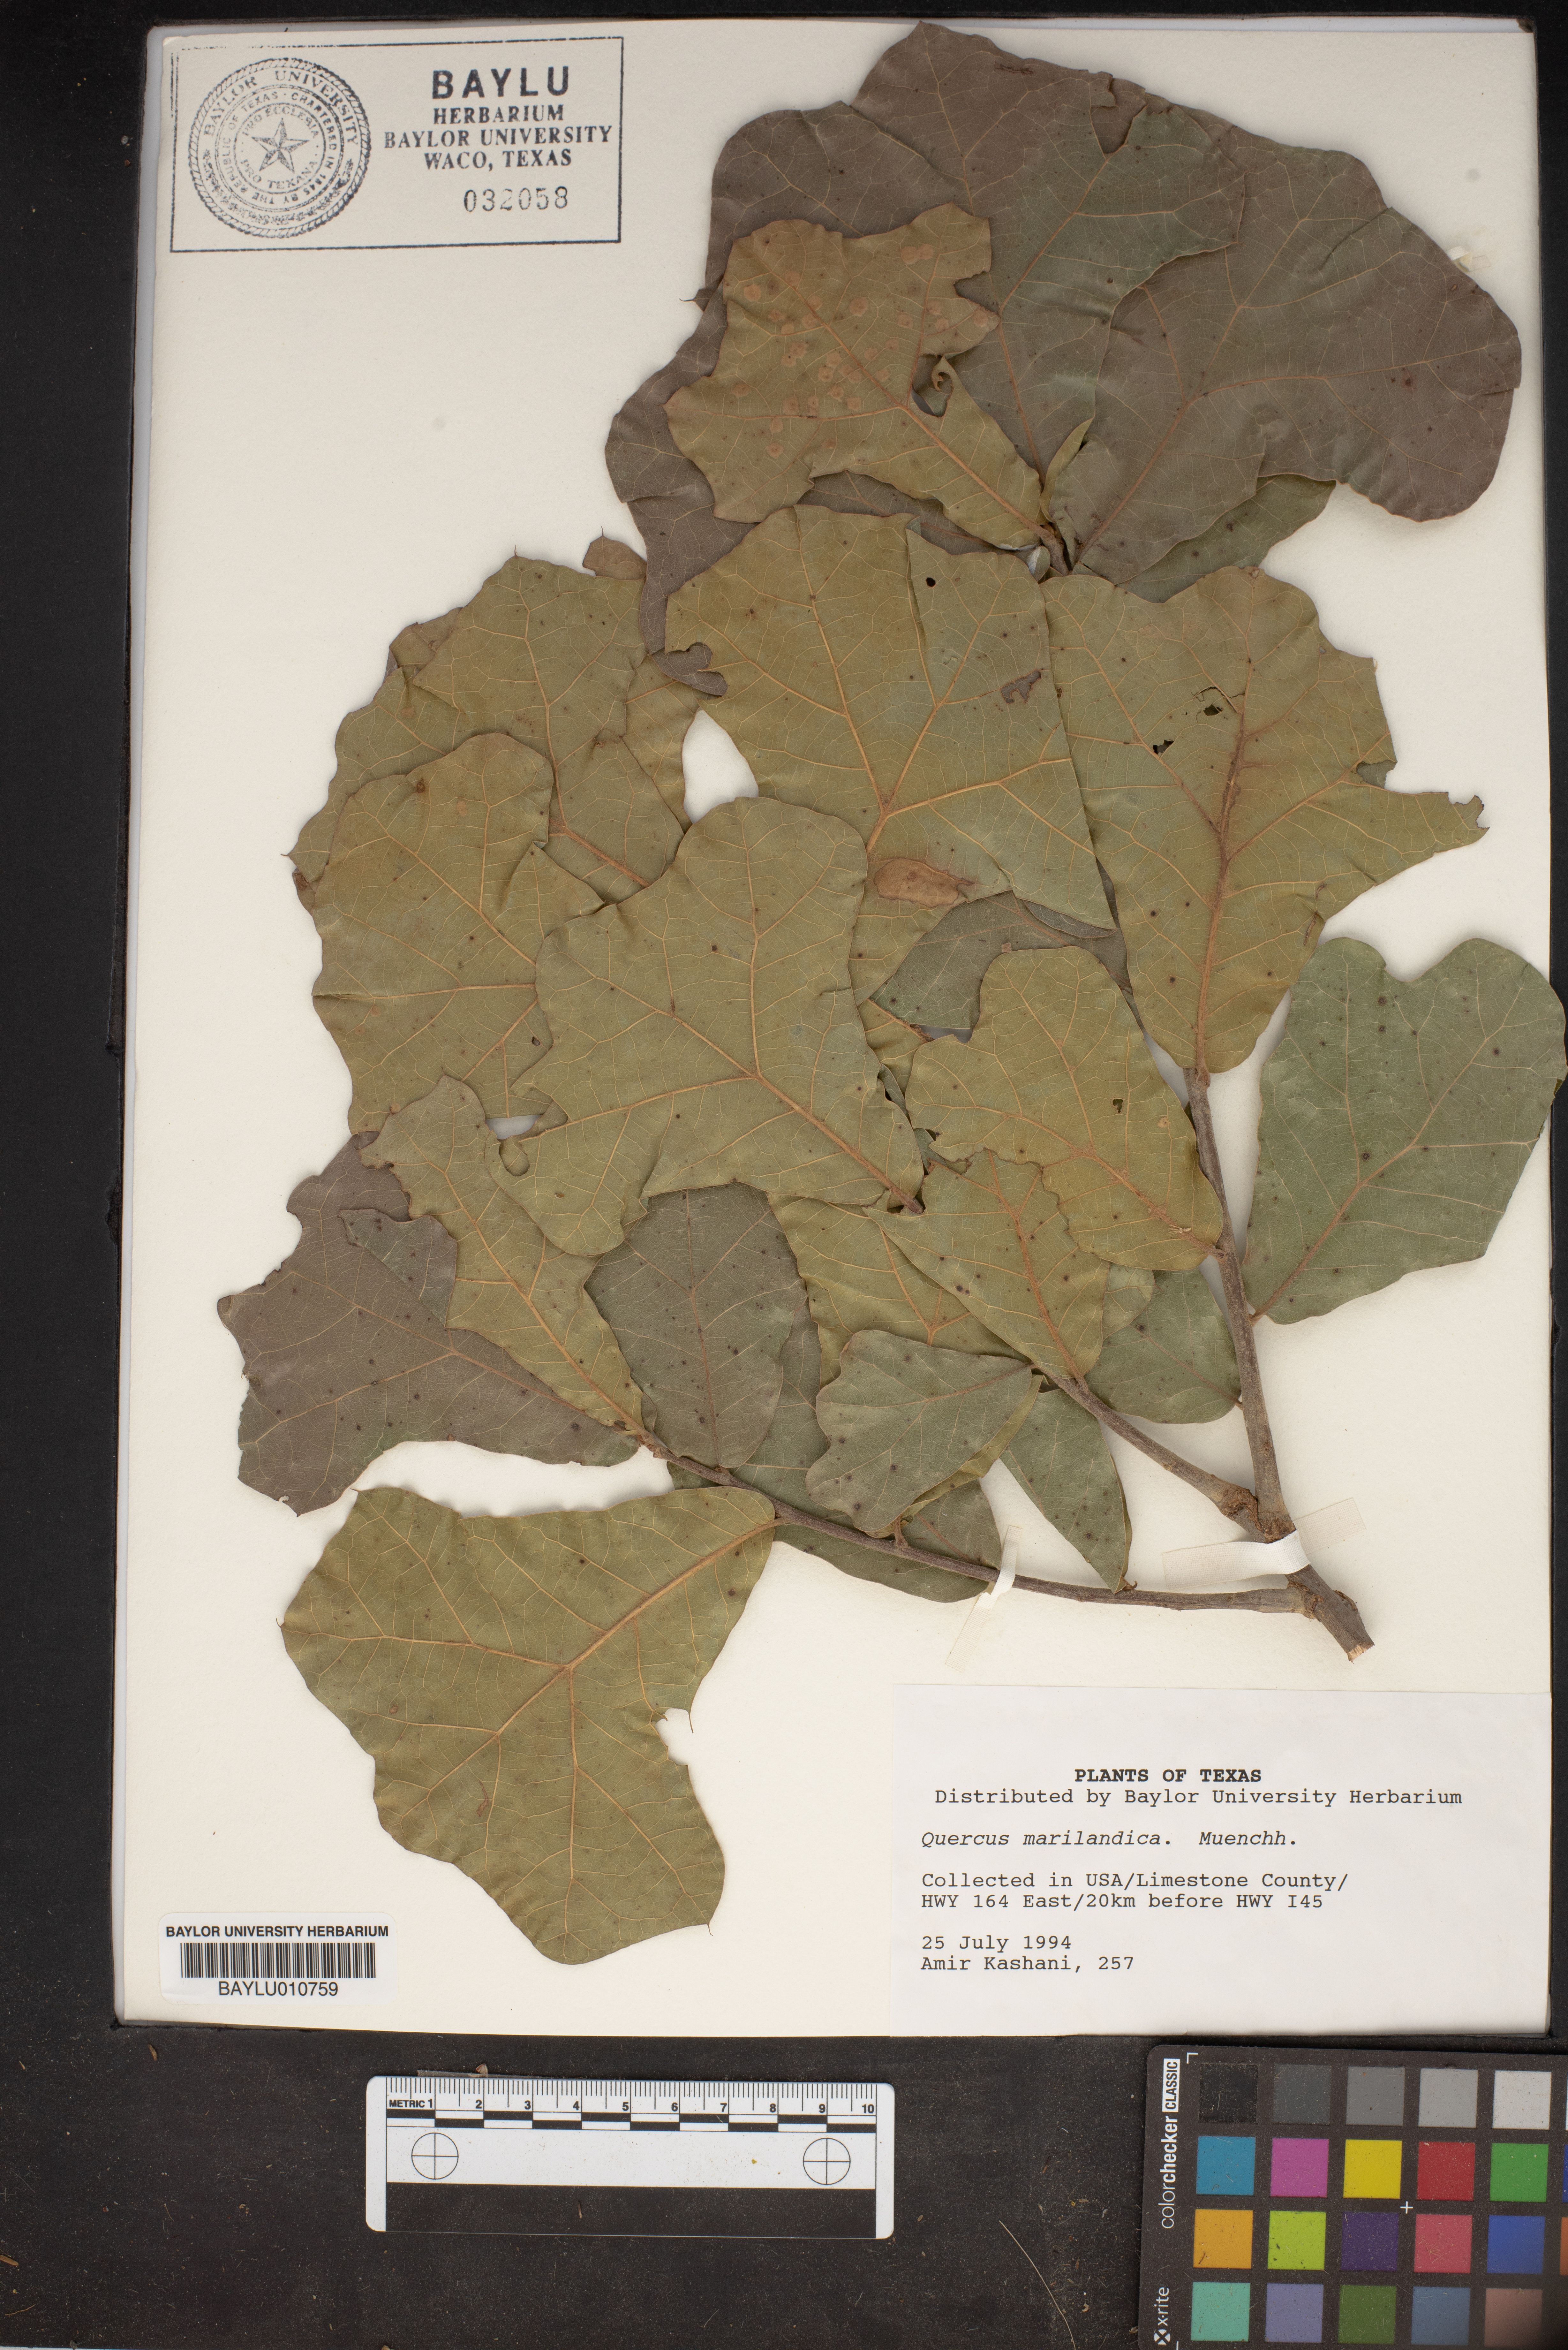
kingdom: Plantae
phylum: Tracheophyta
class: Magnoliopsida
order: Fagales
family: Fagaceae
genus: Quercus
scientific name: Quercus marilandica
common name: Blackjack oak
